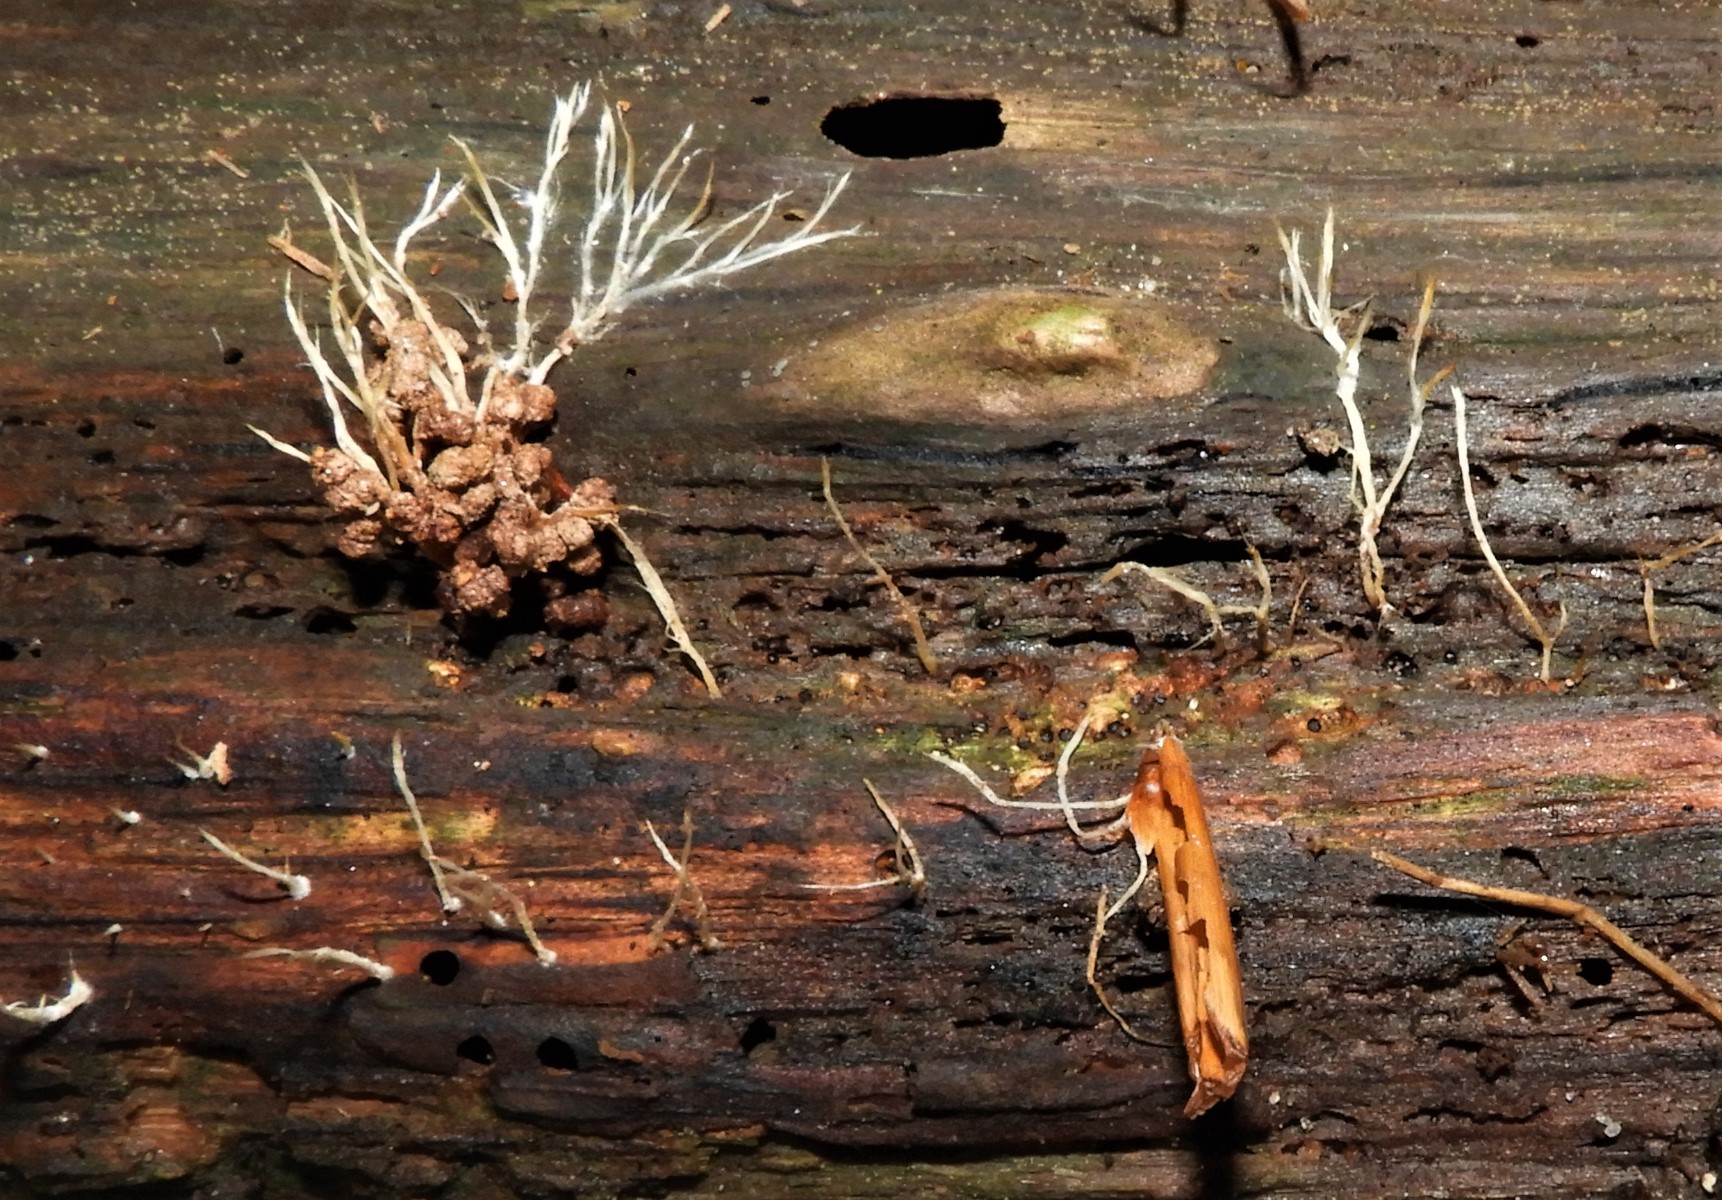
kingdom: Fungi
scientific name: Fungi
